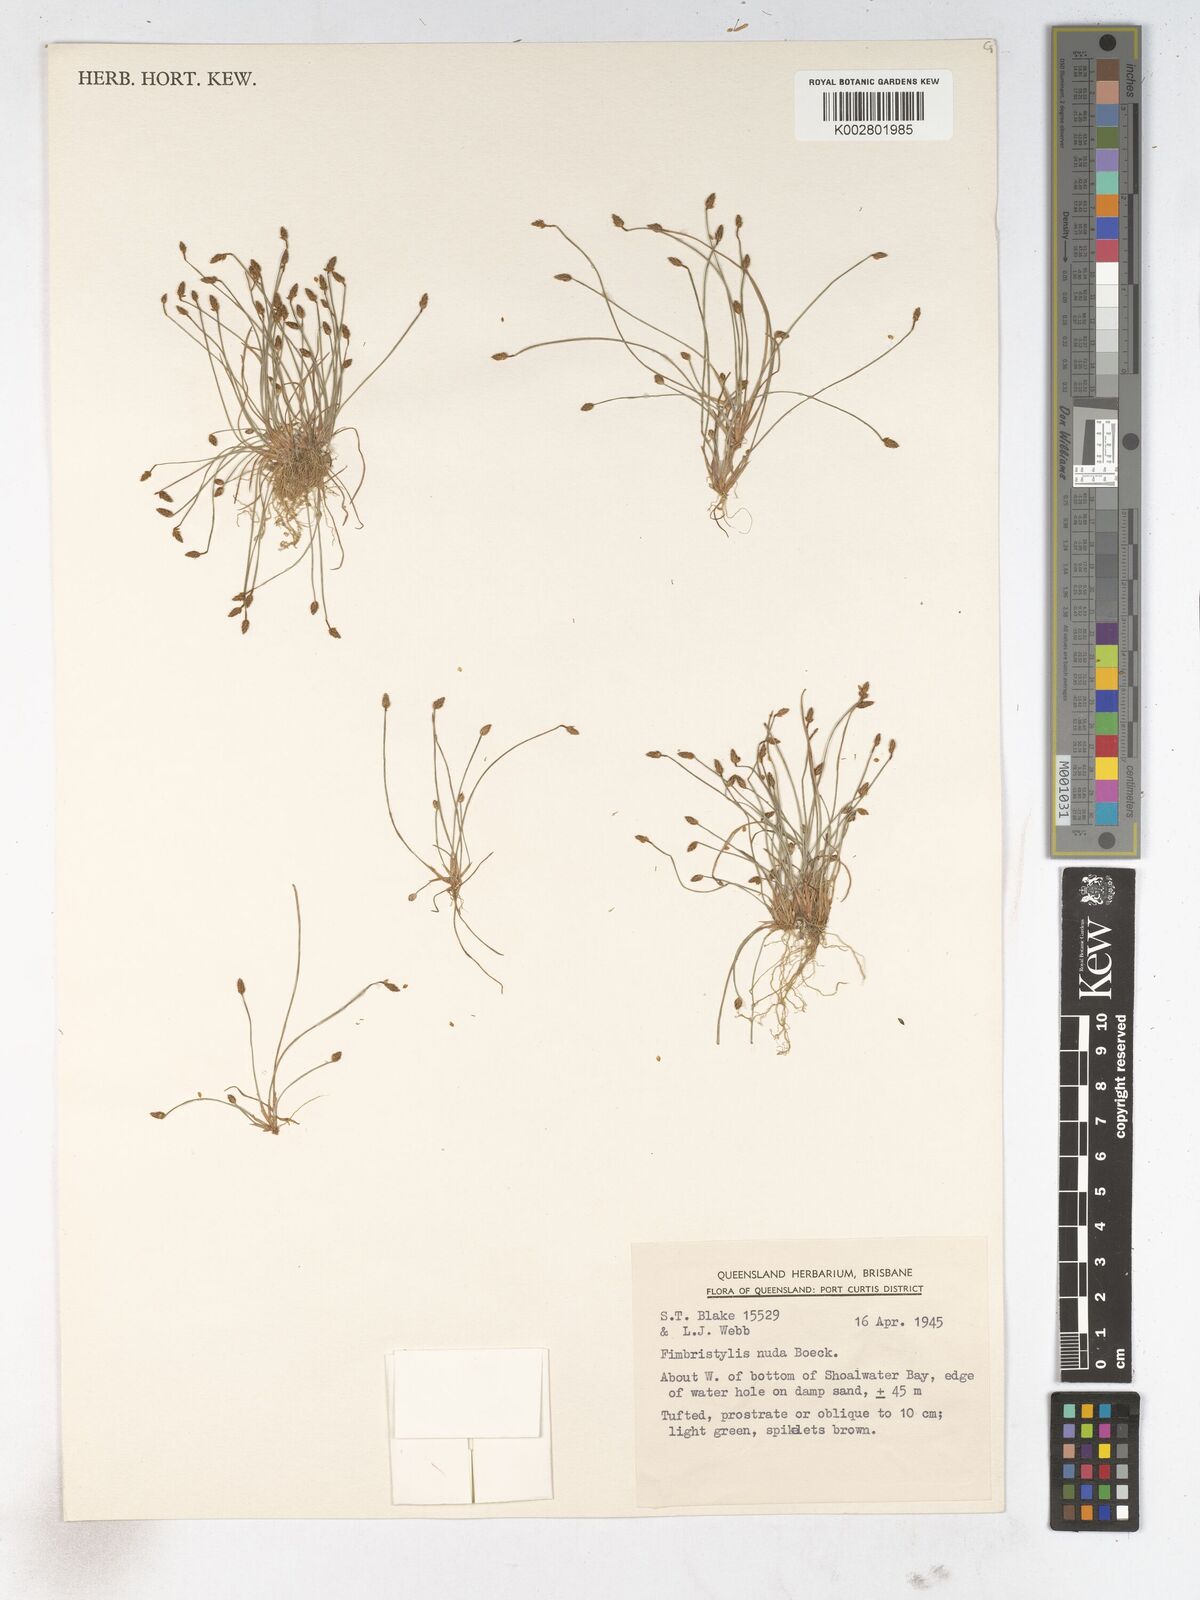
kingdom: Plantae
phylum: Tracheophyta
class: Liliopsida
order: Poales
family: Cyperaceae
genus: Fimbristylis
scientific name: Fimbristylis nuda
